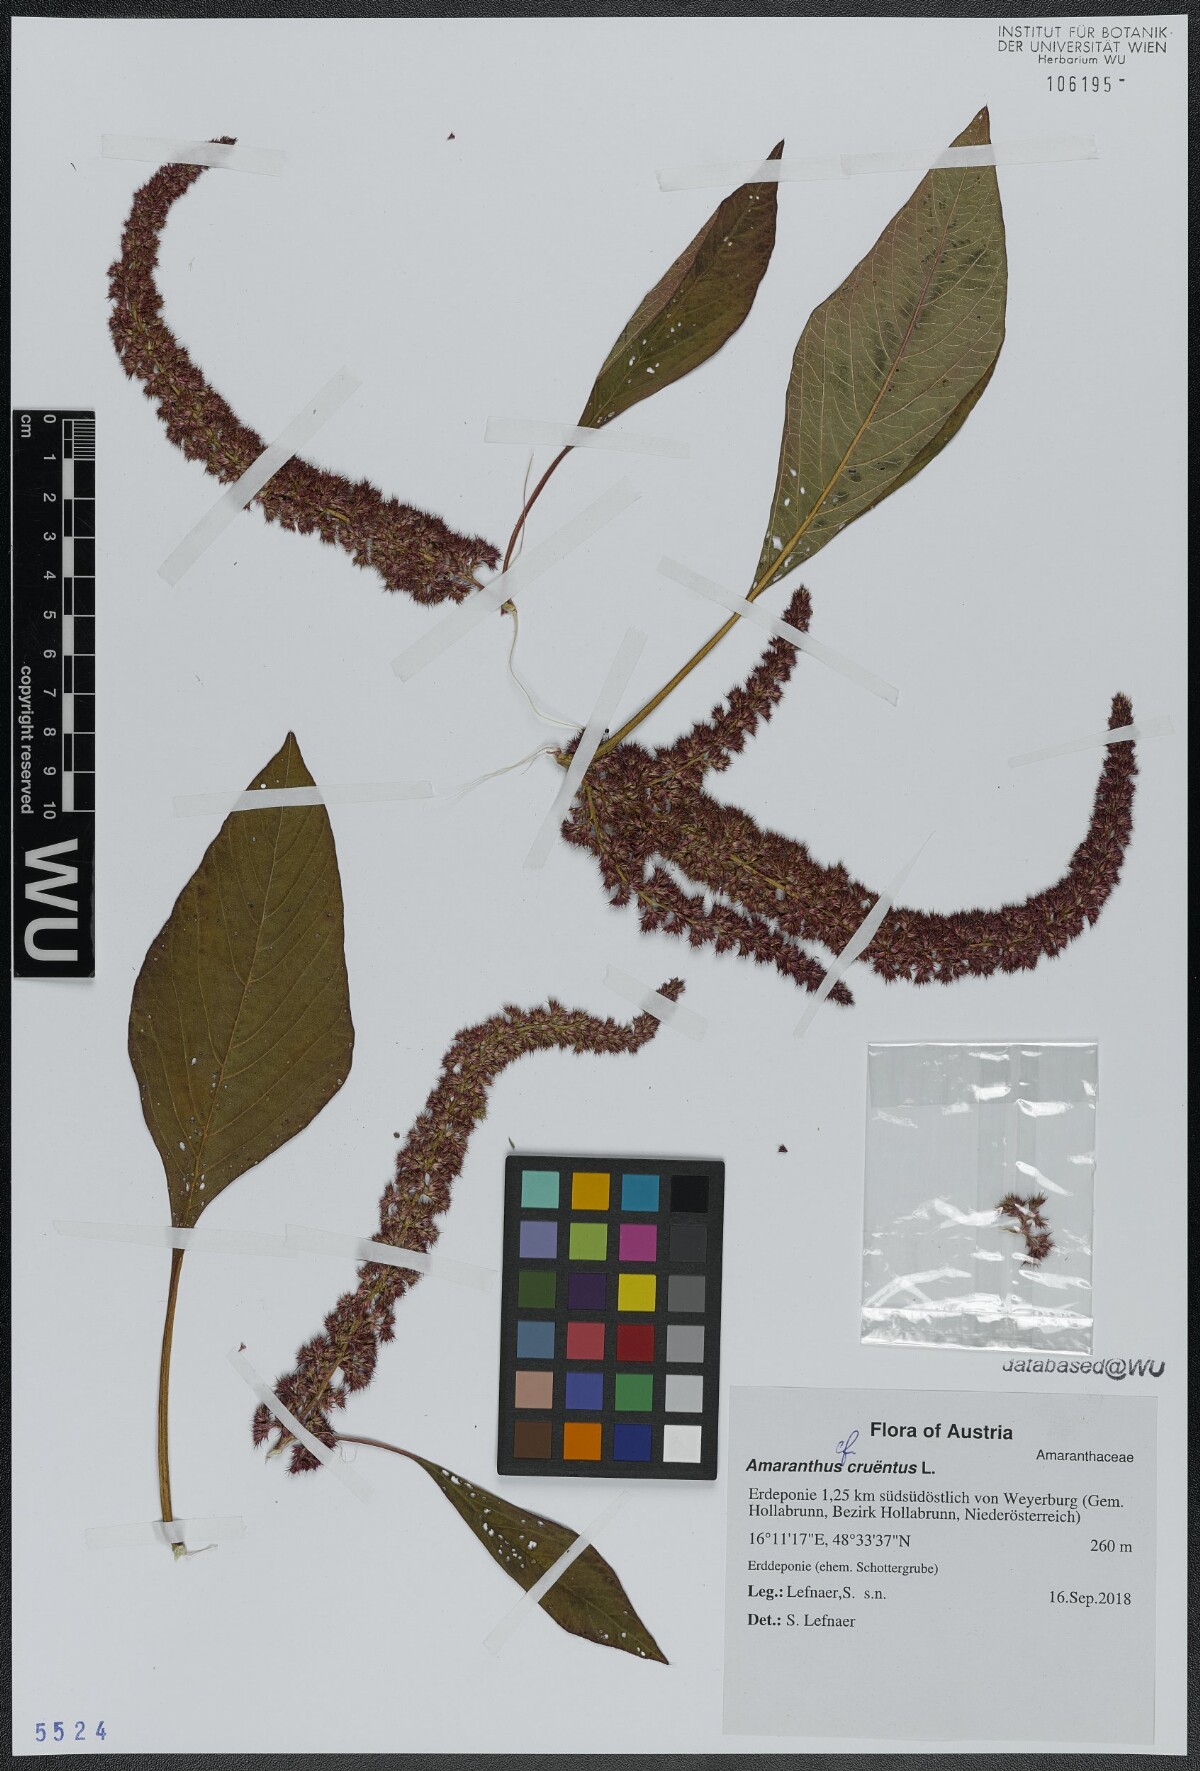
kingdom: Plantae
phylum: Tracheophyta
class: Magnoliopsida
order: Caryophyllales
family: Amaranthaceae
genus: Amaranthus
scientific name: Amaranthus cruentus
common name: Purple amaranth
